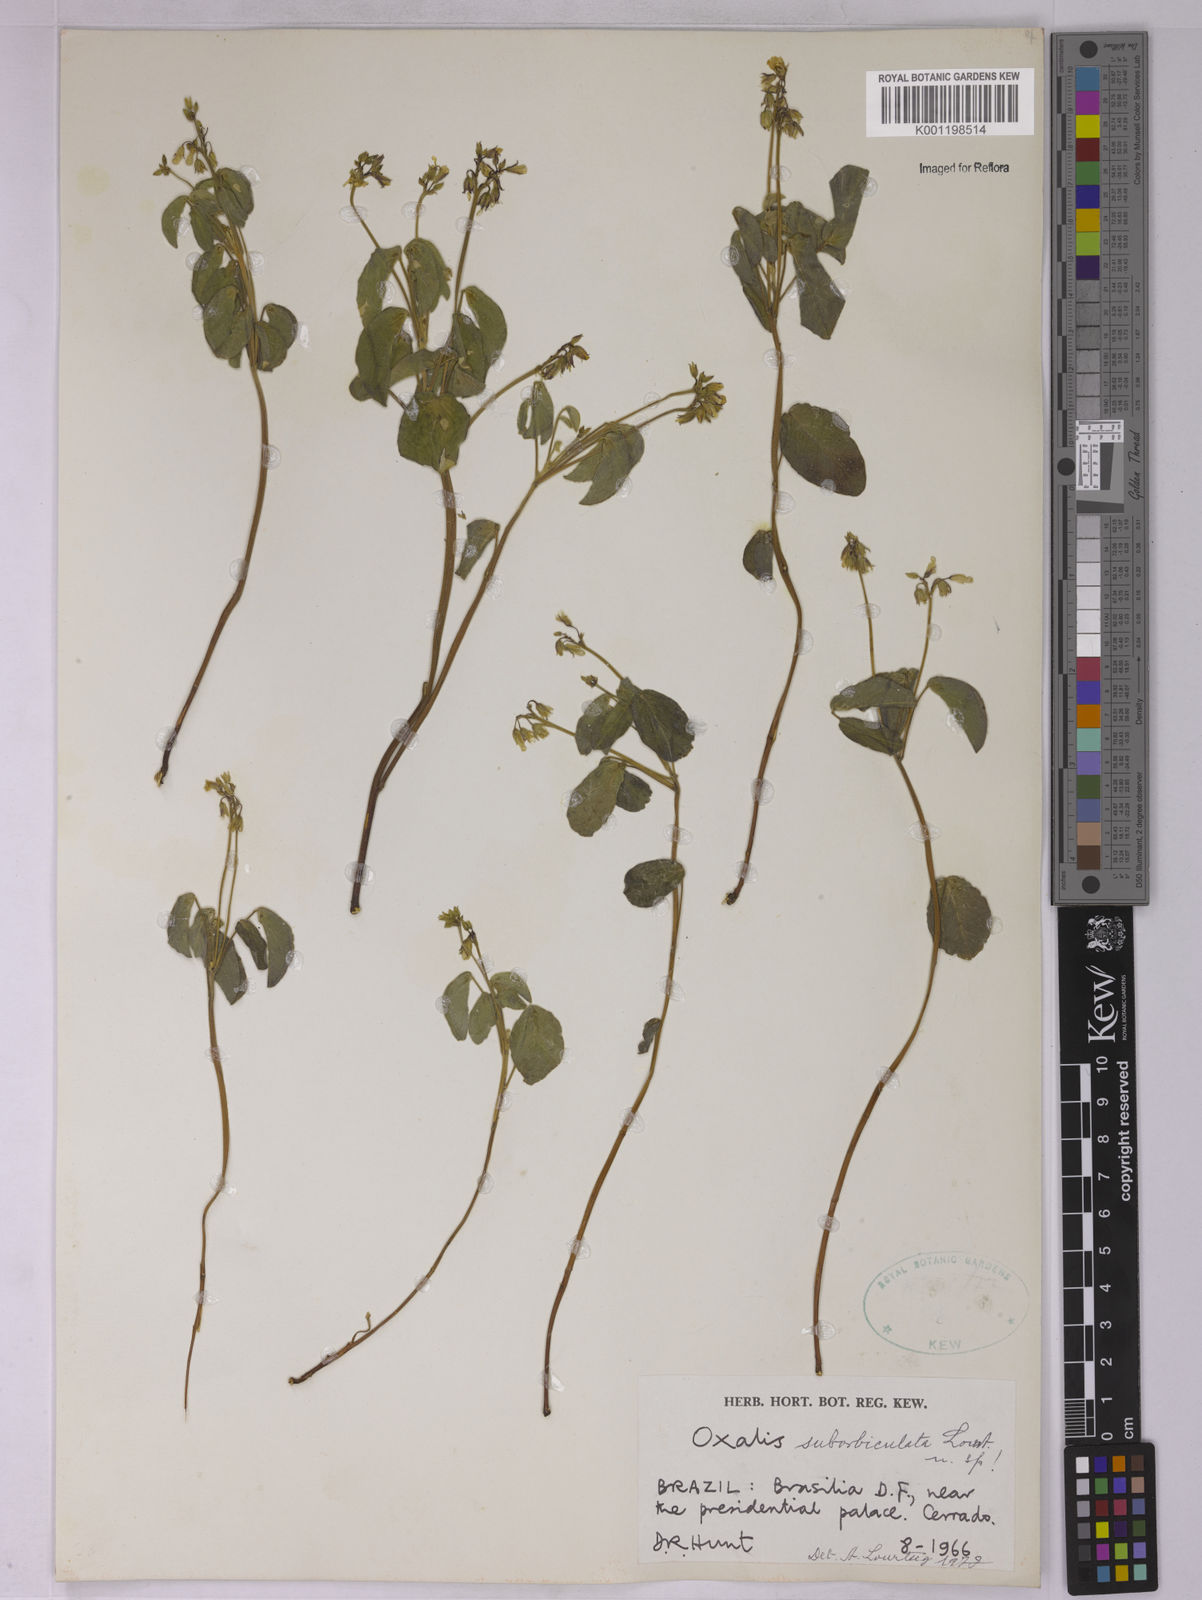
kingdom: Plantae
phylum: Tracheophyta
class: Magnoliopsida
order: Oxalidales
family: Oxalidaceae
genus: Oxalis
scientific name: Oxalis suborbiculata
